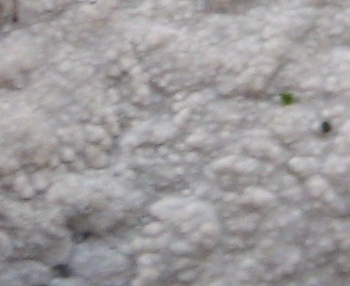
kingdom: Fungi
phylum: Basidiomycota
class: Agaricomycetes
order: Corticiales
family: Corticiaceae
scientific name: Corticiaceae
